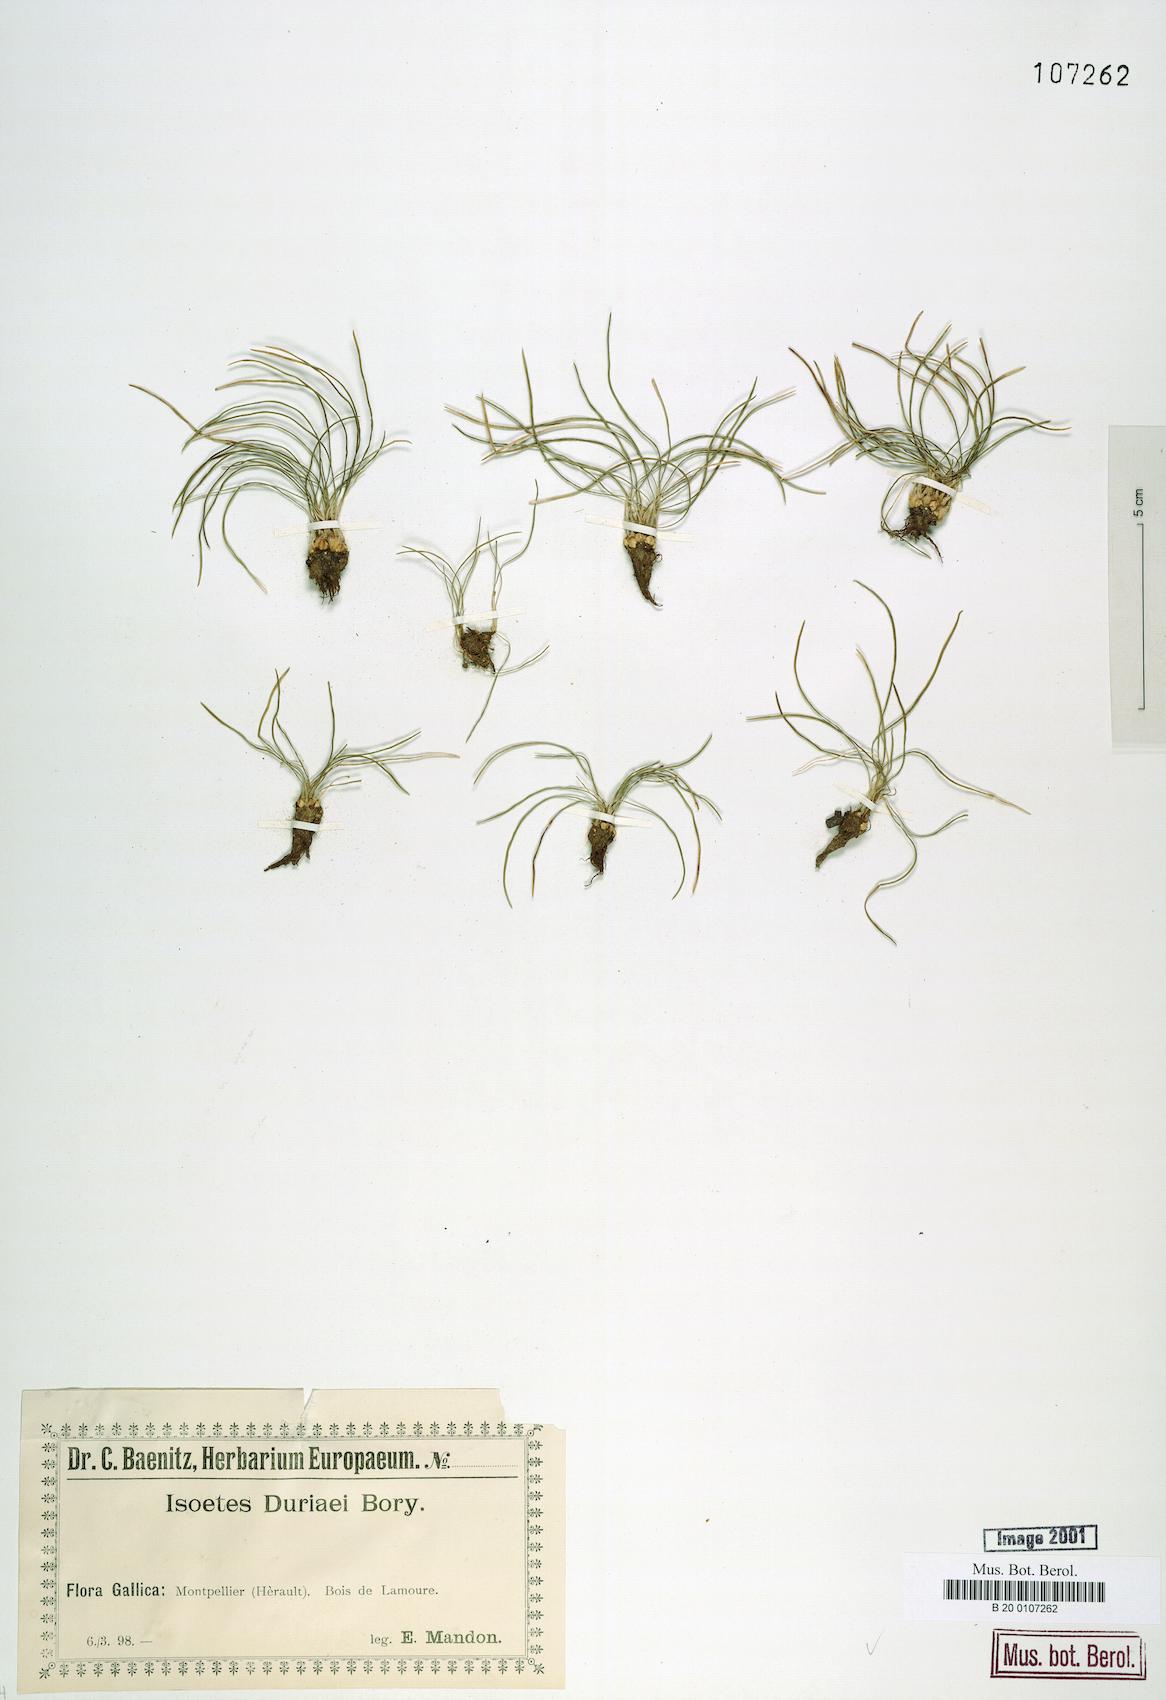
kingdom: Plantae
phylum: Tracheophyta
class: Lycopodiopsida
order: Isoetales
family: Isoetaceae
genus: Isoetes
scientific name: Isoetes duriei
